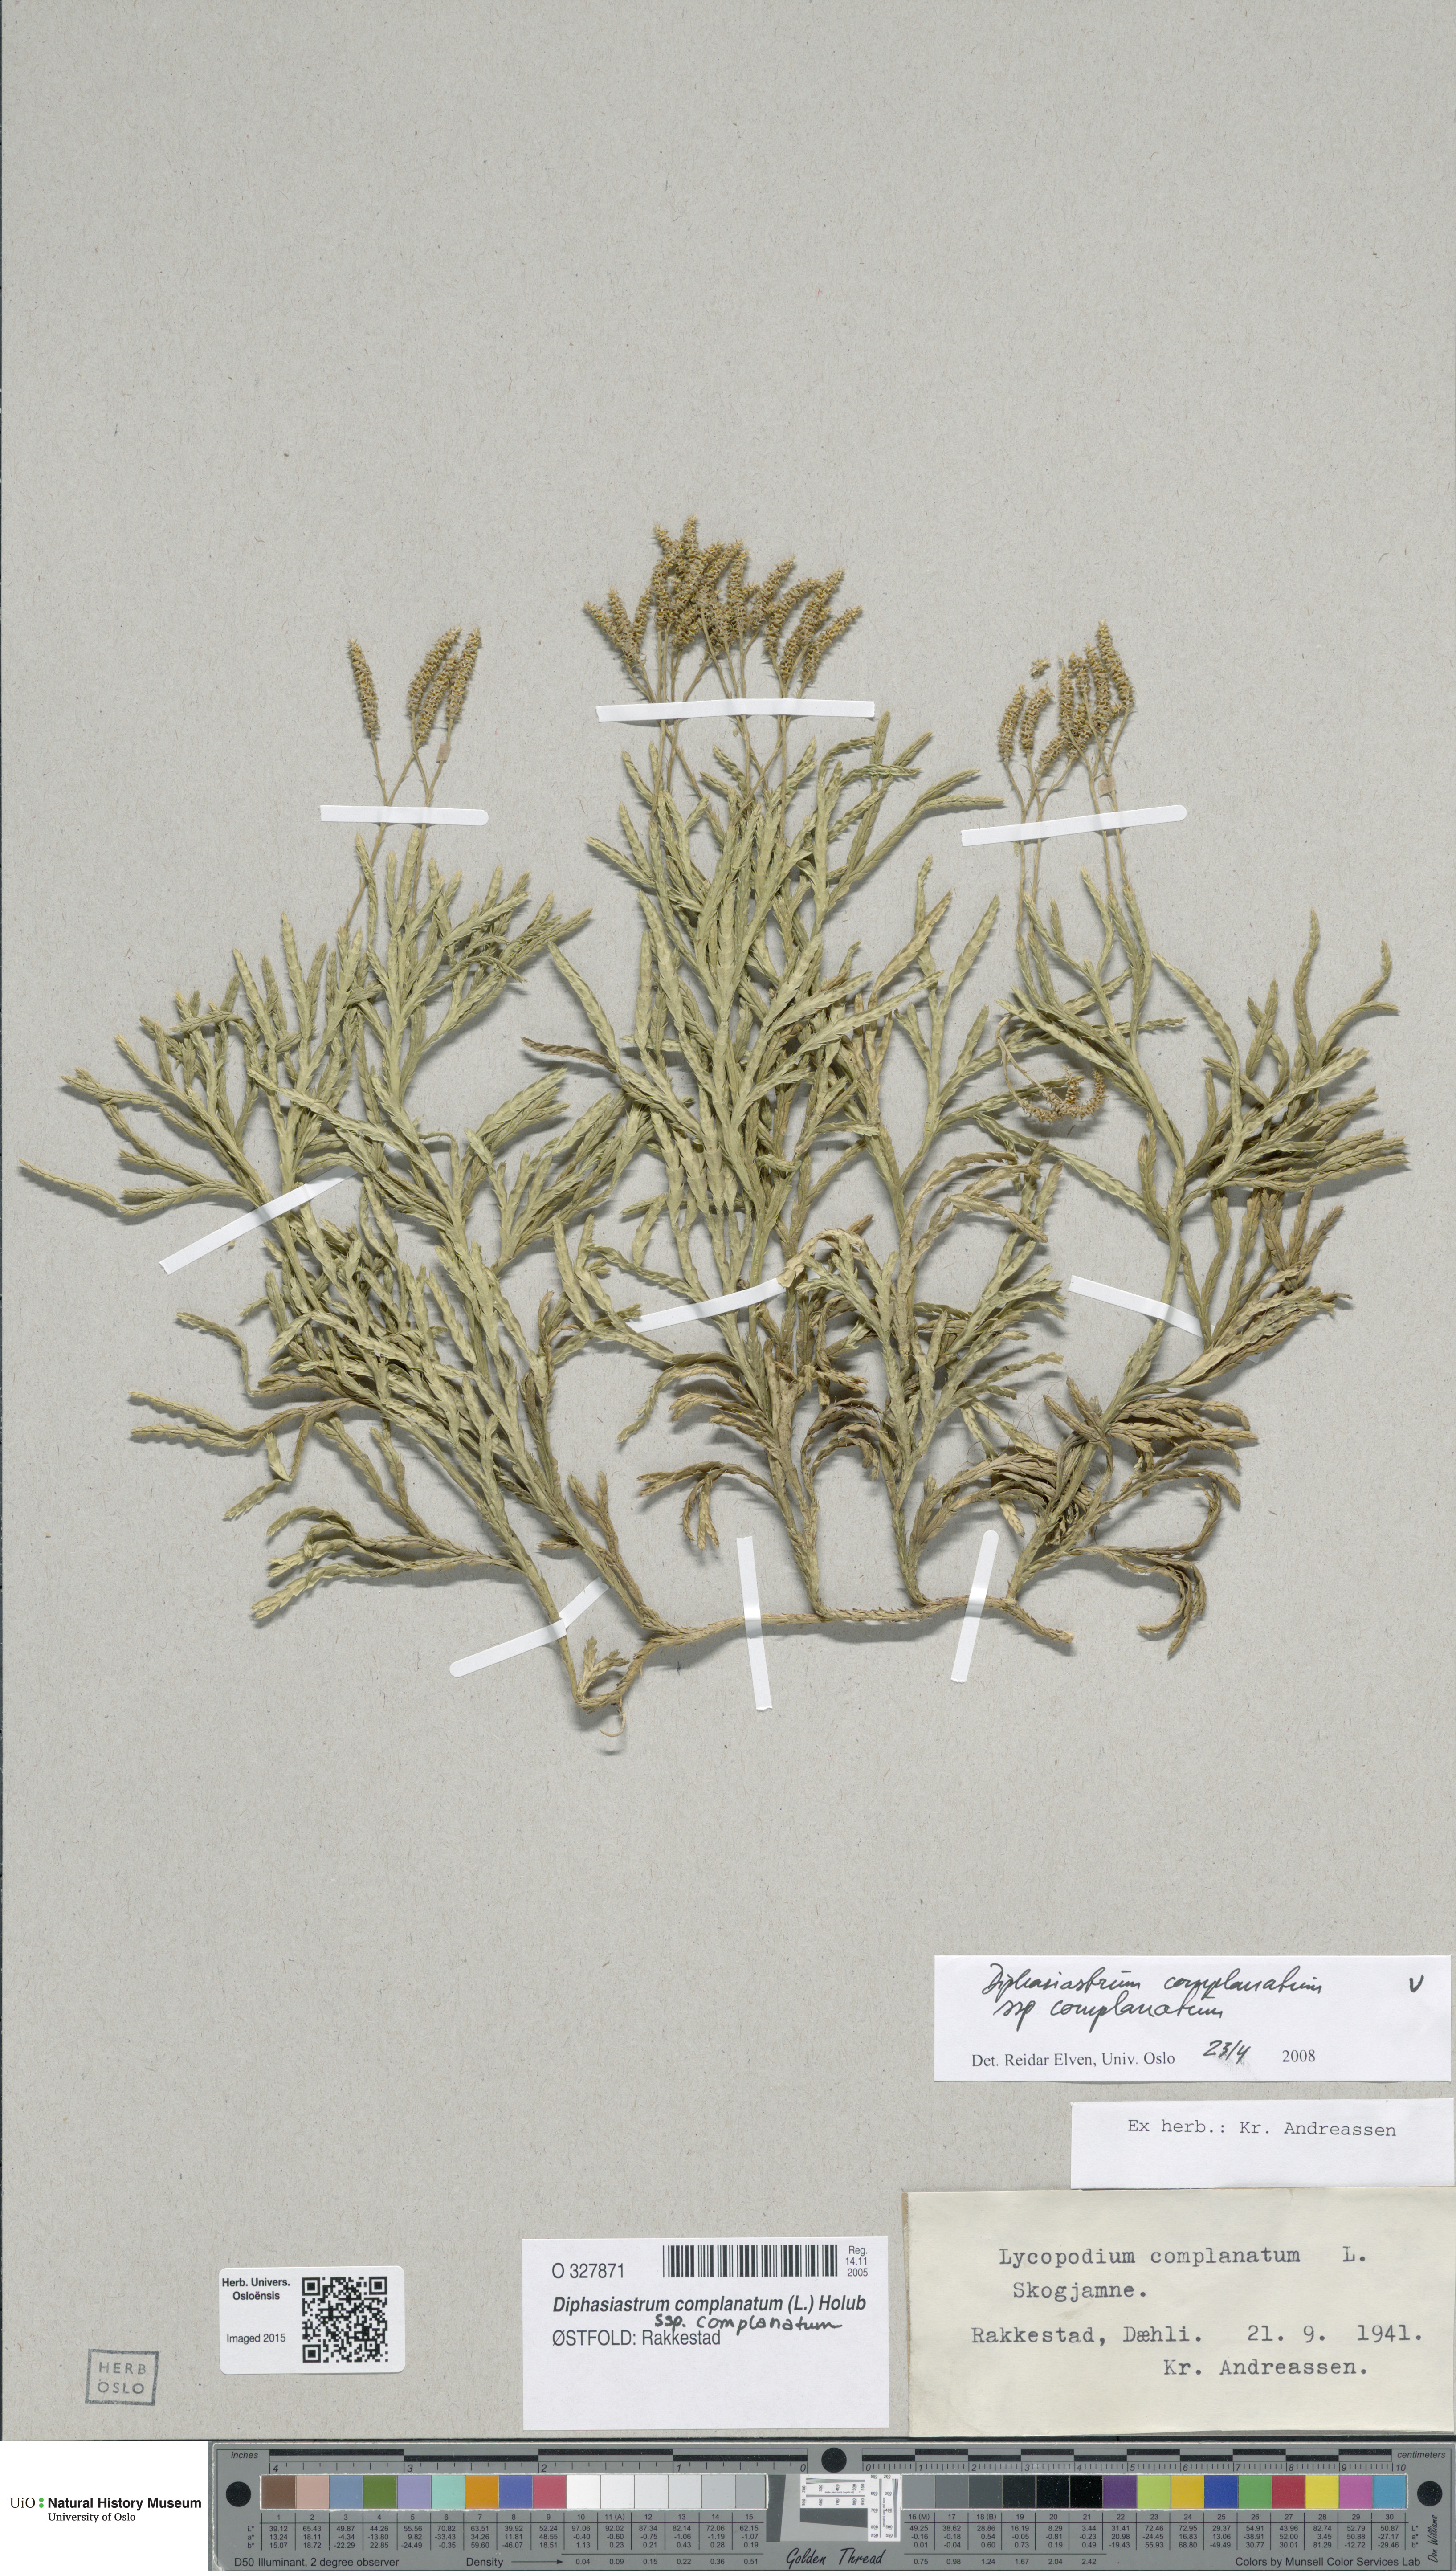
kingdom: Plantae
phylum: Tracheophyta
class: Lycopodiopsida
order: Lycopodiales
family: Lycopodiaceae
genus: Diphasiastrum
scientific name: Diphasiastrum complanatum
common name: Northern running-pine
